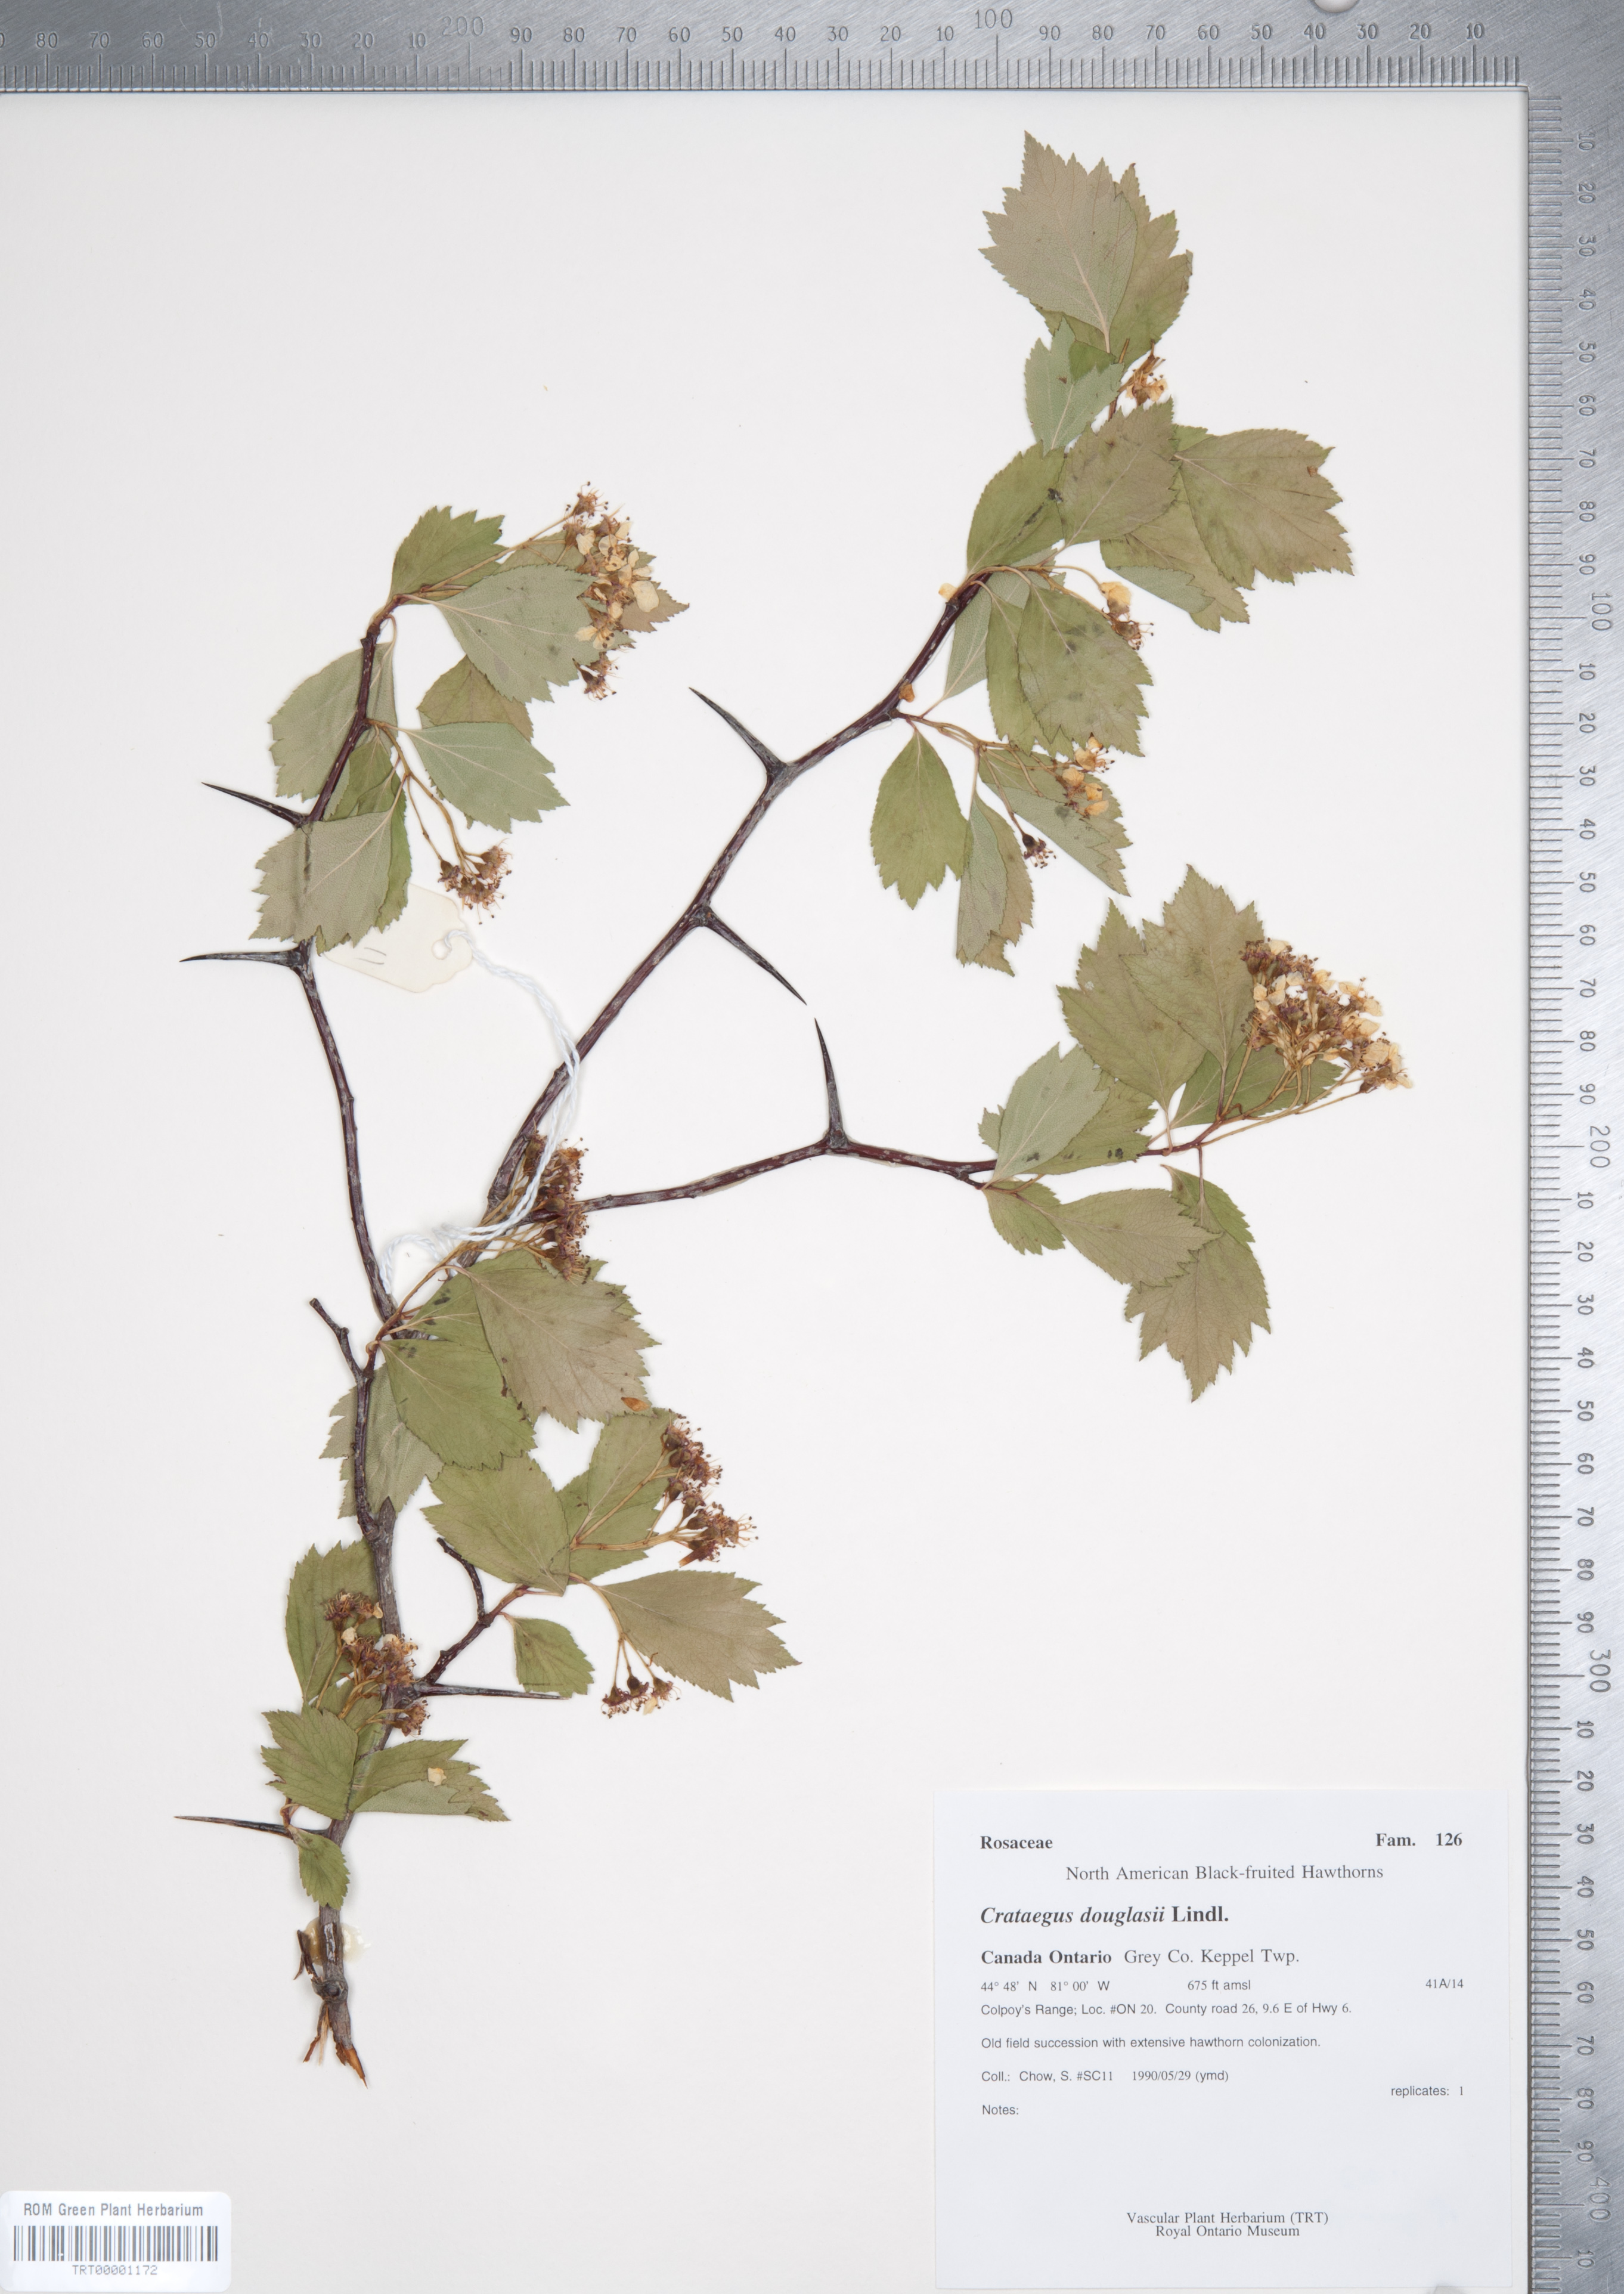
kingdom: Plantae
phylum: Tracheophyta
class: Magnoliopsida
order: Rosales
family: Rosaceae
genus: Crataegus
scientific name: Crataegus douglasii
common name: Black hawthorn
